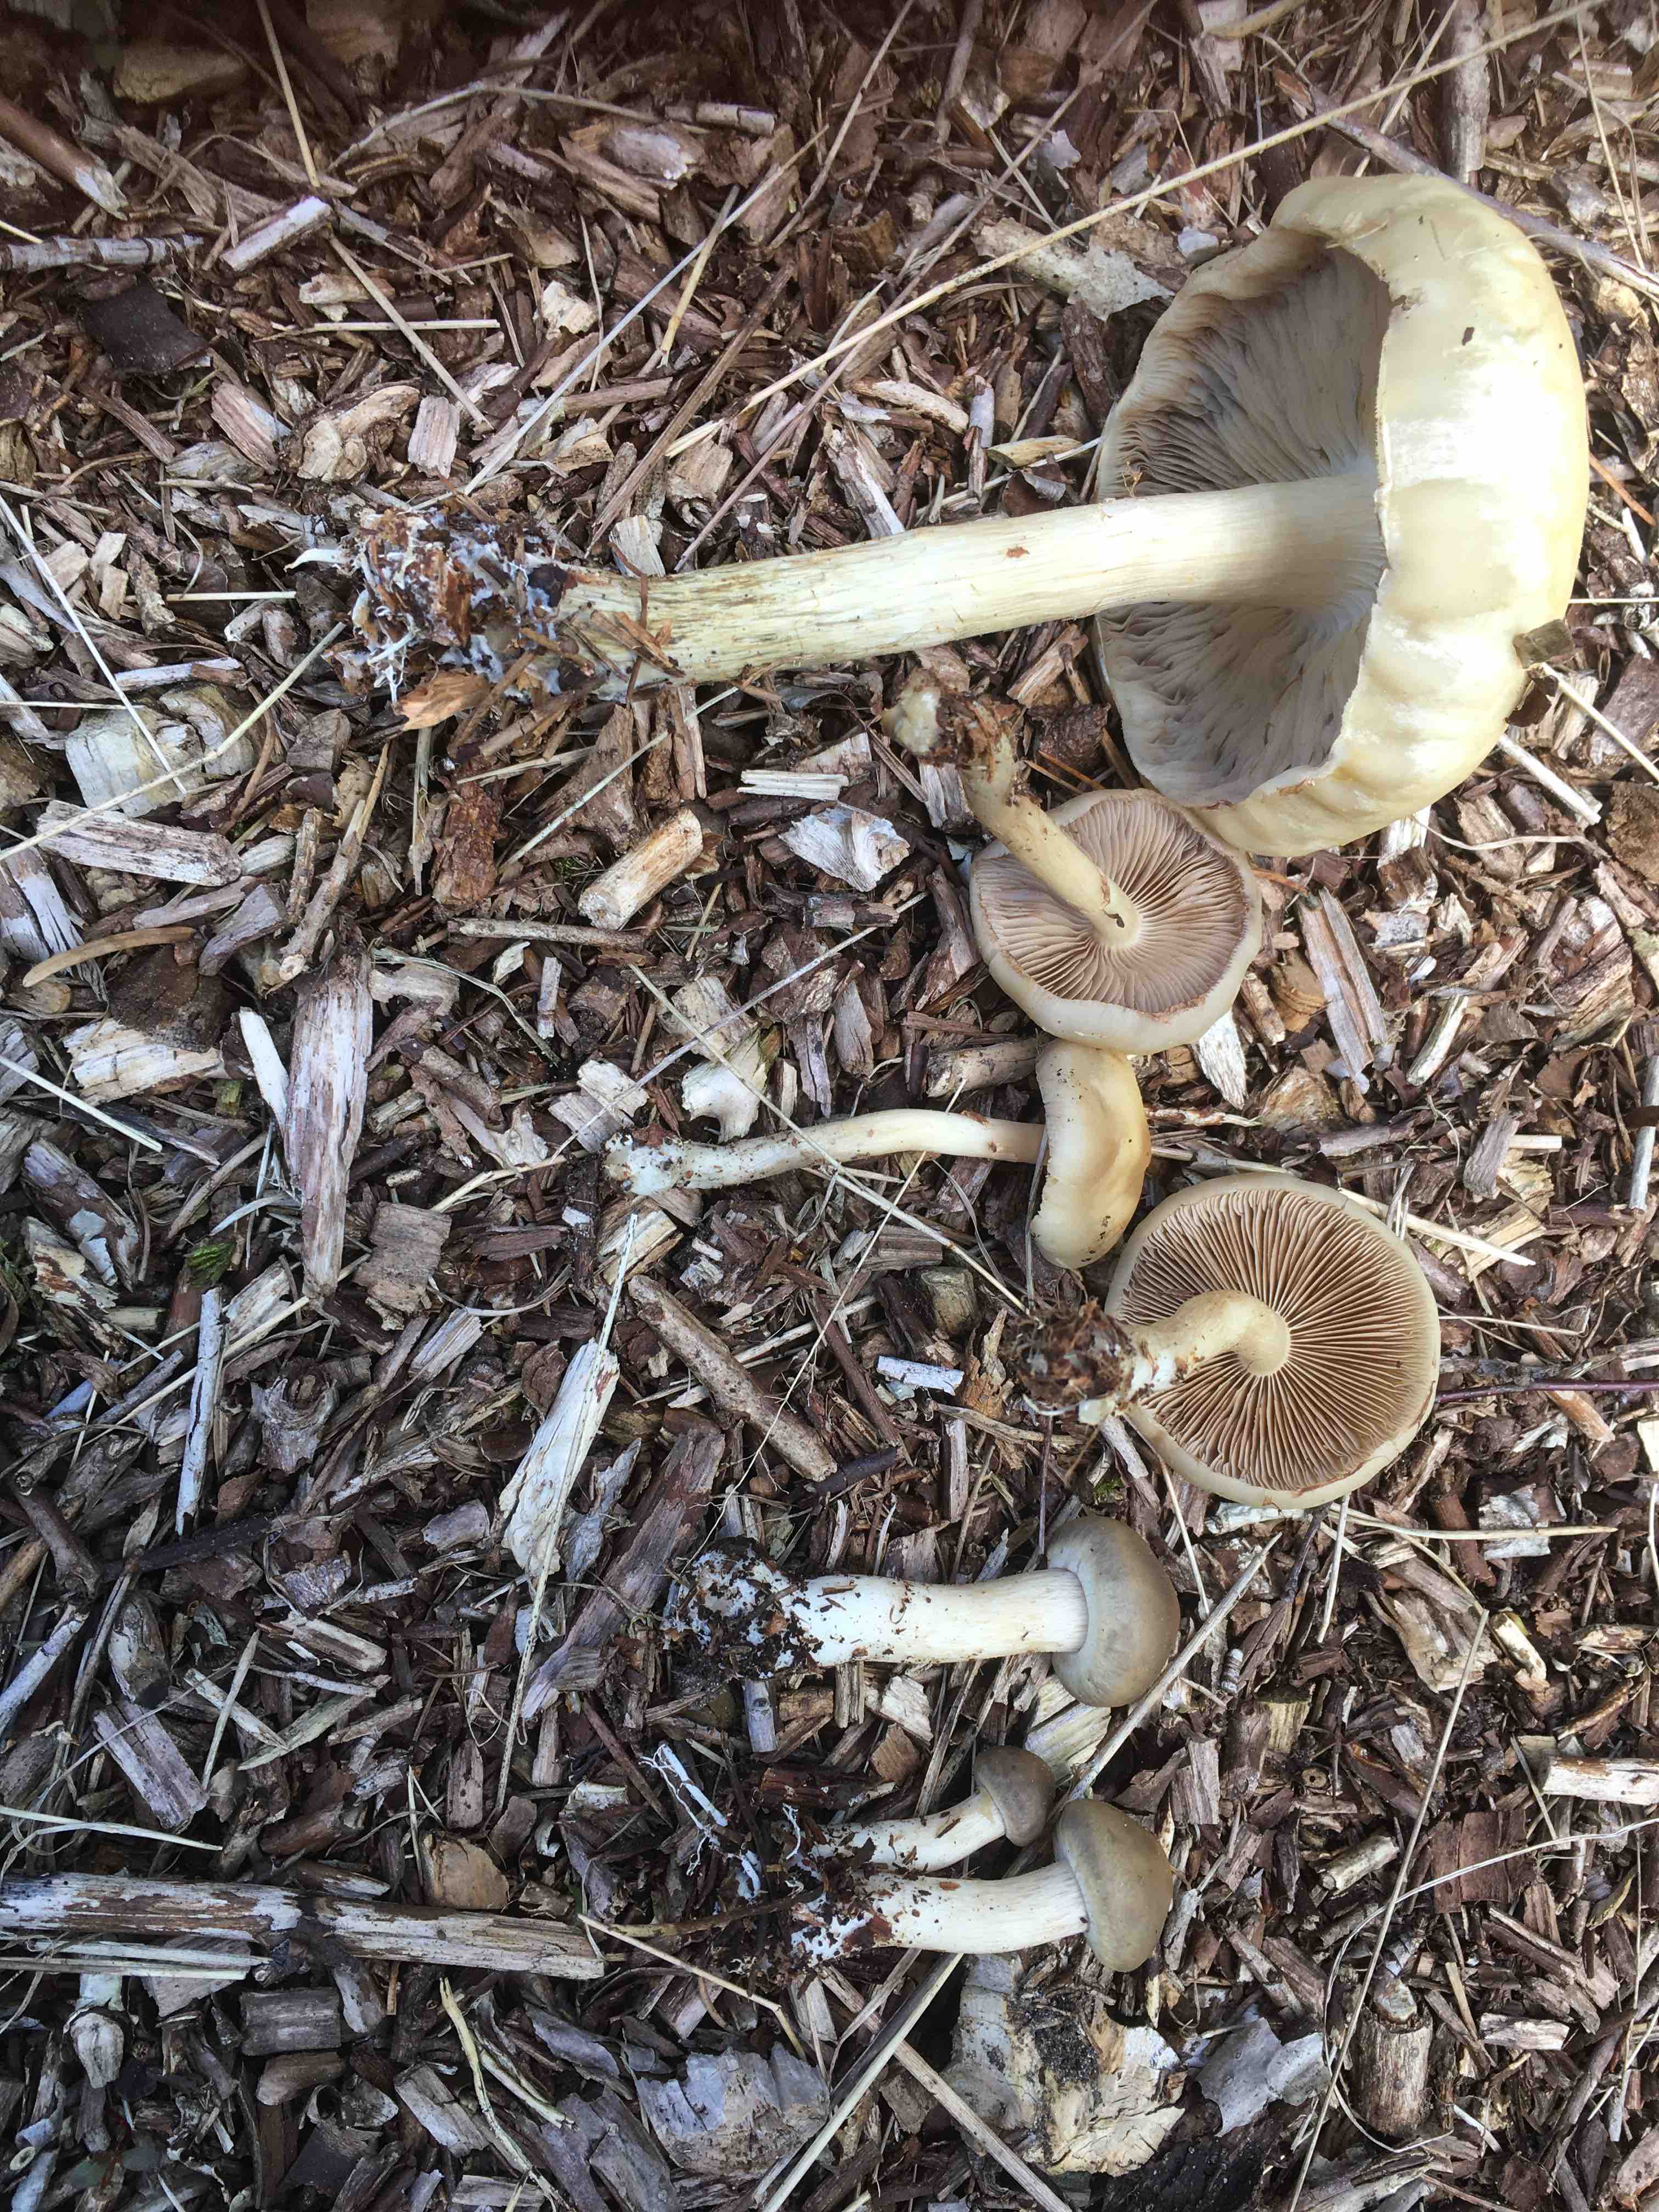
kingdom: Fungi
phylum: Basidiomycota
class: Agaricomycetes
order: Agaricales
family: Strophariaceae
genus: Agrocybe
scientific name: Agrocybe praecox
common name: tidlig agerhat
